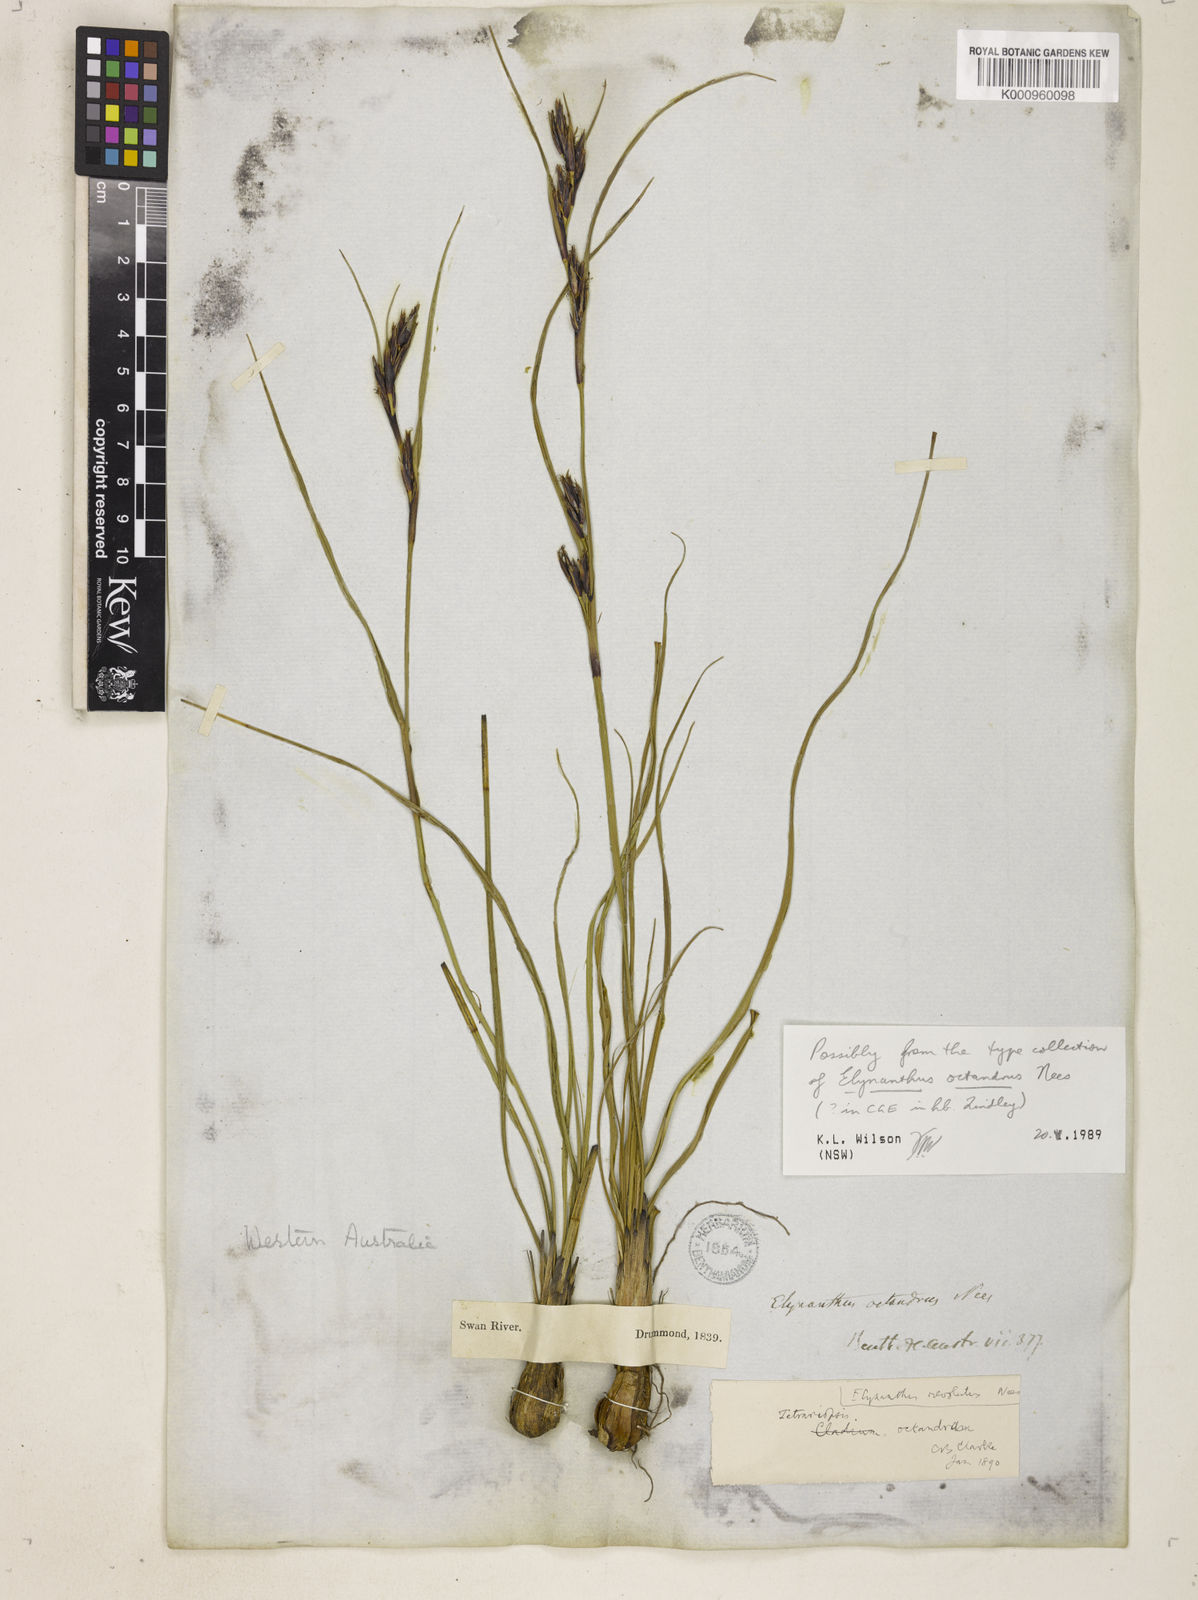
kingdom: Plantae
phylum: Tracheophyta
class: Liliopsida
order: Poales
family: Cyperaceae
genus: Tetraria
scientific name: Tetraria
